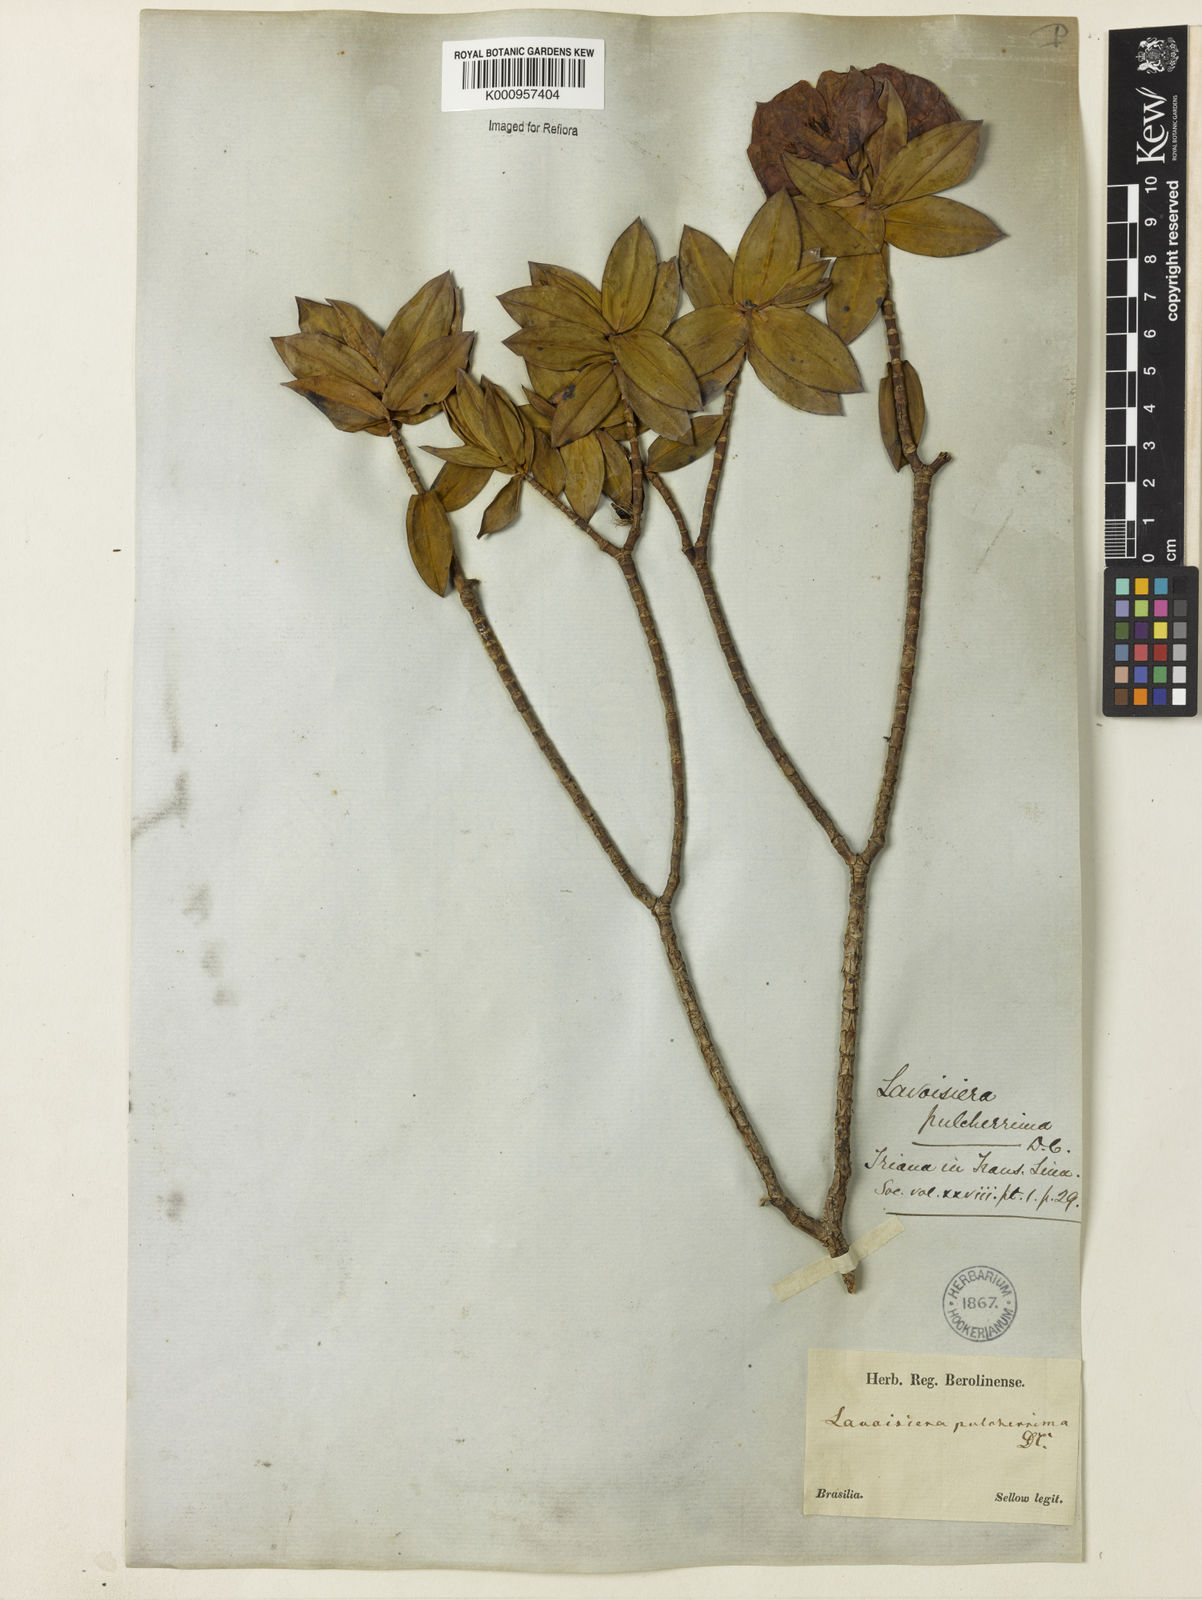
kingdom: Plantae
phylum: Tracheophyta
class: Magnoliopsida
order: Myrtales
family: Melastomataceae
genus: Microlicia
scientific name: Microlicia pulcherrima
